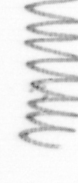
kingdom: Chromista
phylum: Ochrophyta
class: Bacillariophyceae
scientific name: Bacillariophyceae
